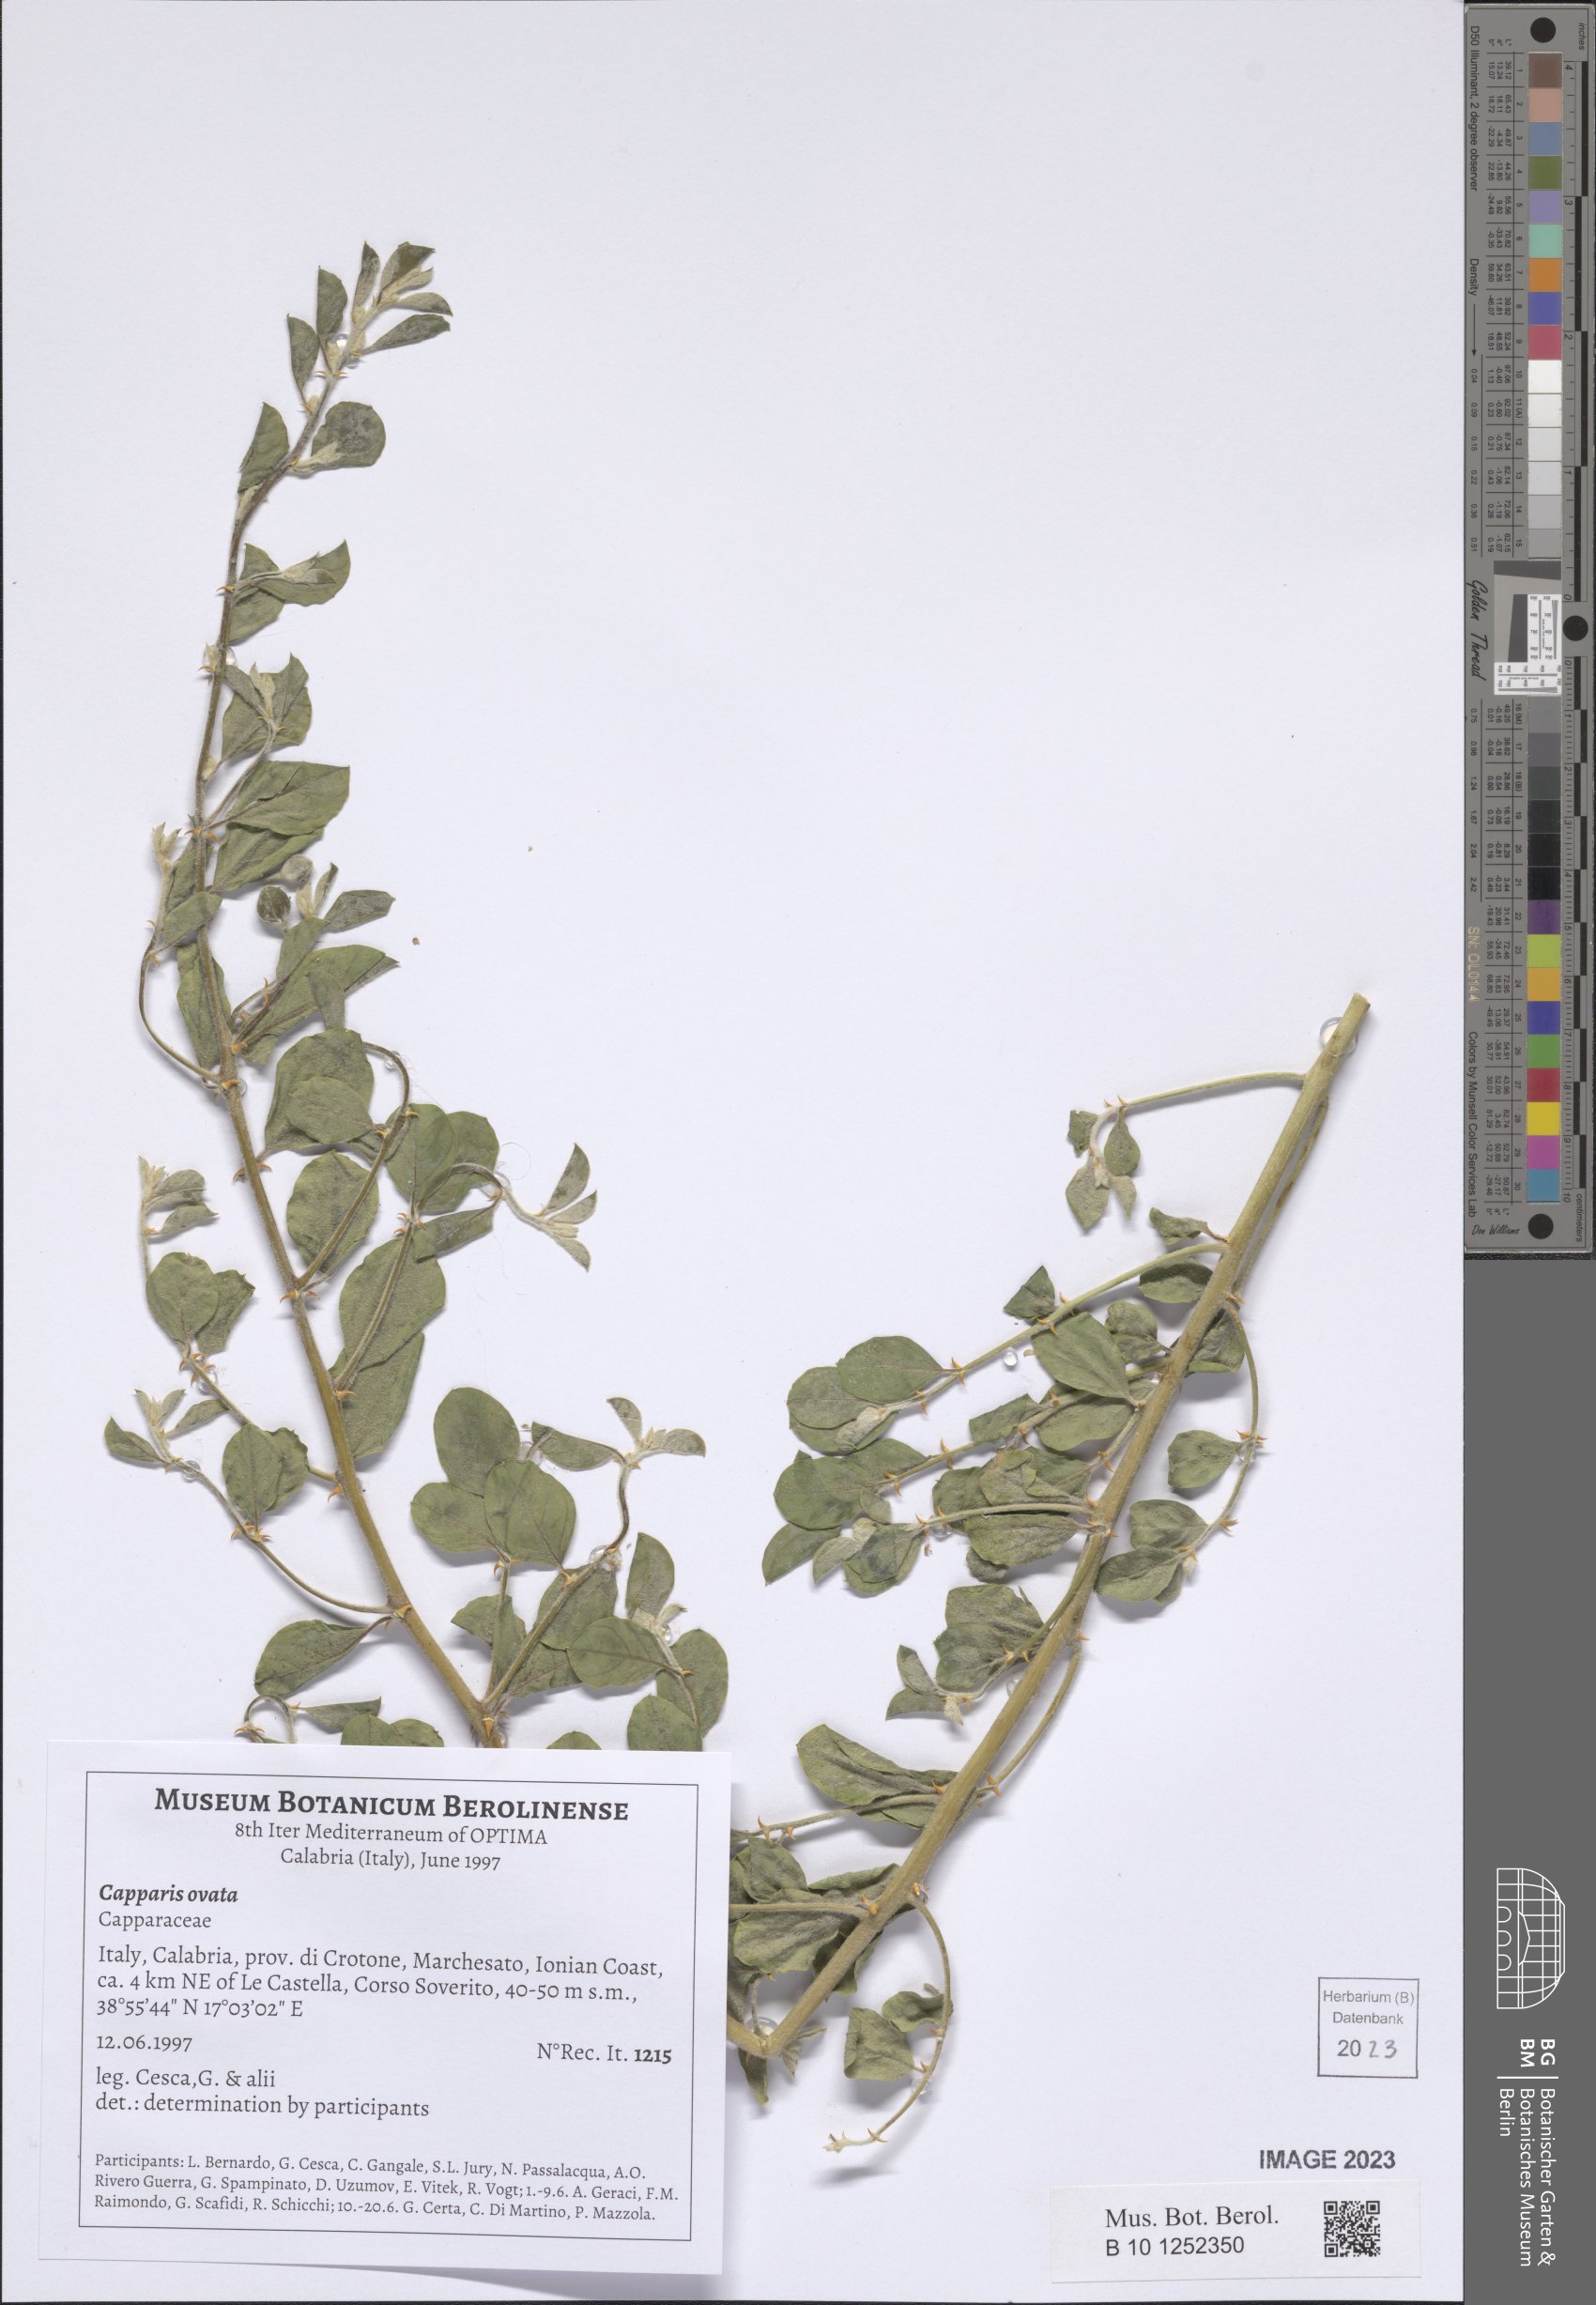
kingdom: Plantae
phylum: Tracheophyta
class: Magnoliopsida
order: Brassicales
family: Capparaceae
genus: Capparis
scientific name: Capparis spinosa
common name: Caper
